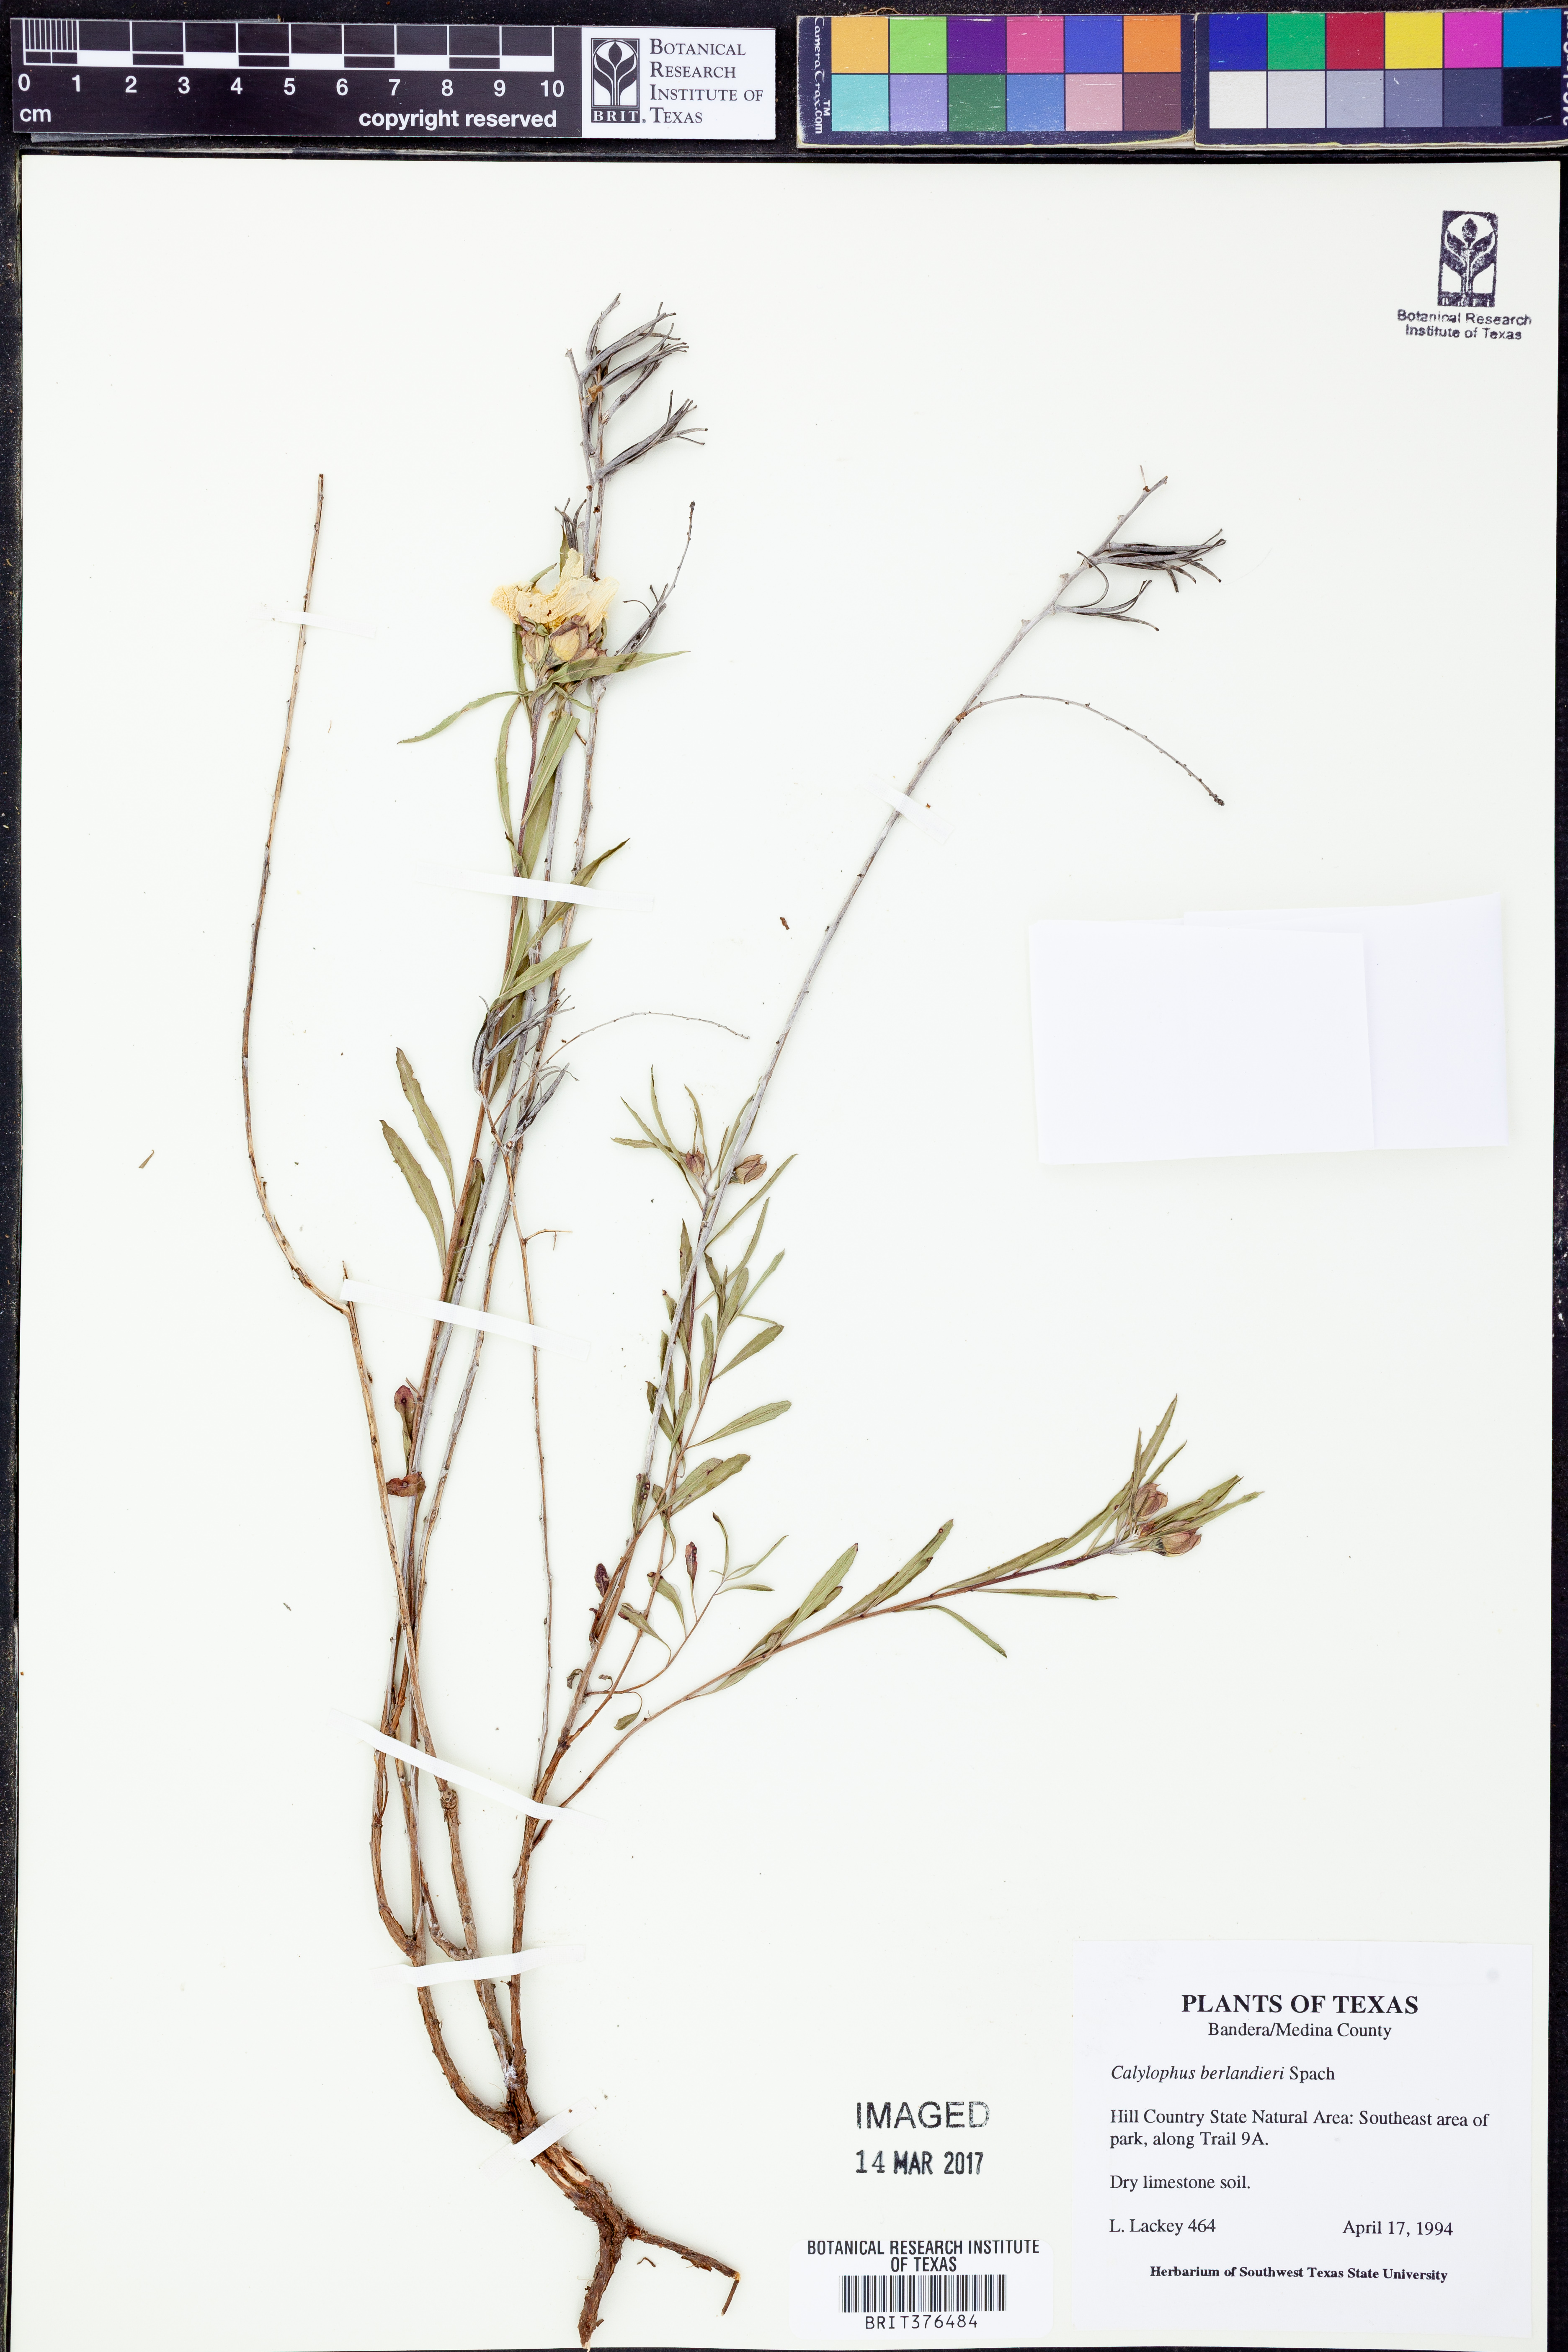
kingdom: Plantae
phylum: Tracheophyta
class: Magnoliopsida
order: Myrtales
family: Onagraceae
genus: Oenothera
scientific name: Oenothera capillifolia
